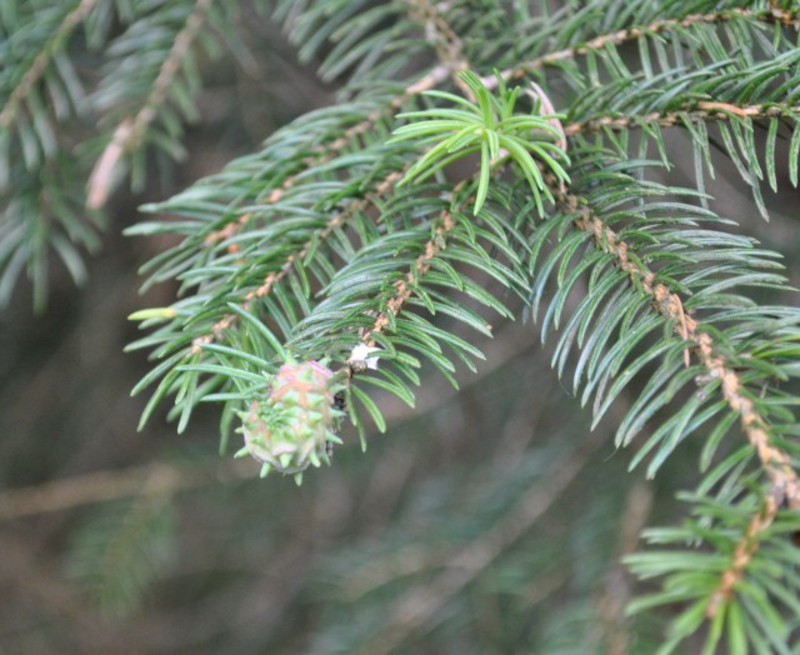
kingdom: Animalia
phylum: Arthropoda
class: Insecta
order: Hemiptera
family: Adelgidae
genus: Adelges
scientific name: Adelges laricis
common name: Pale spruce gall adelgid
